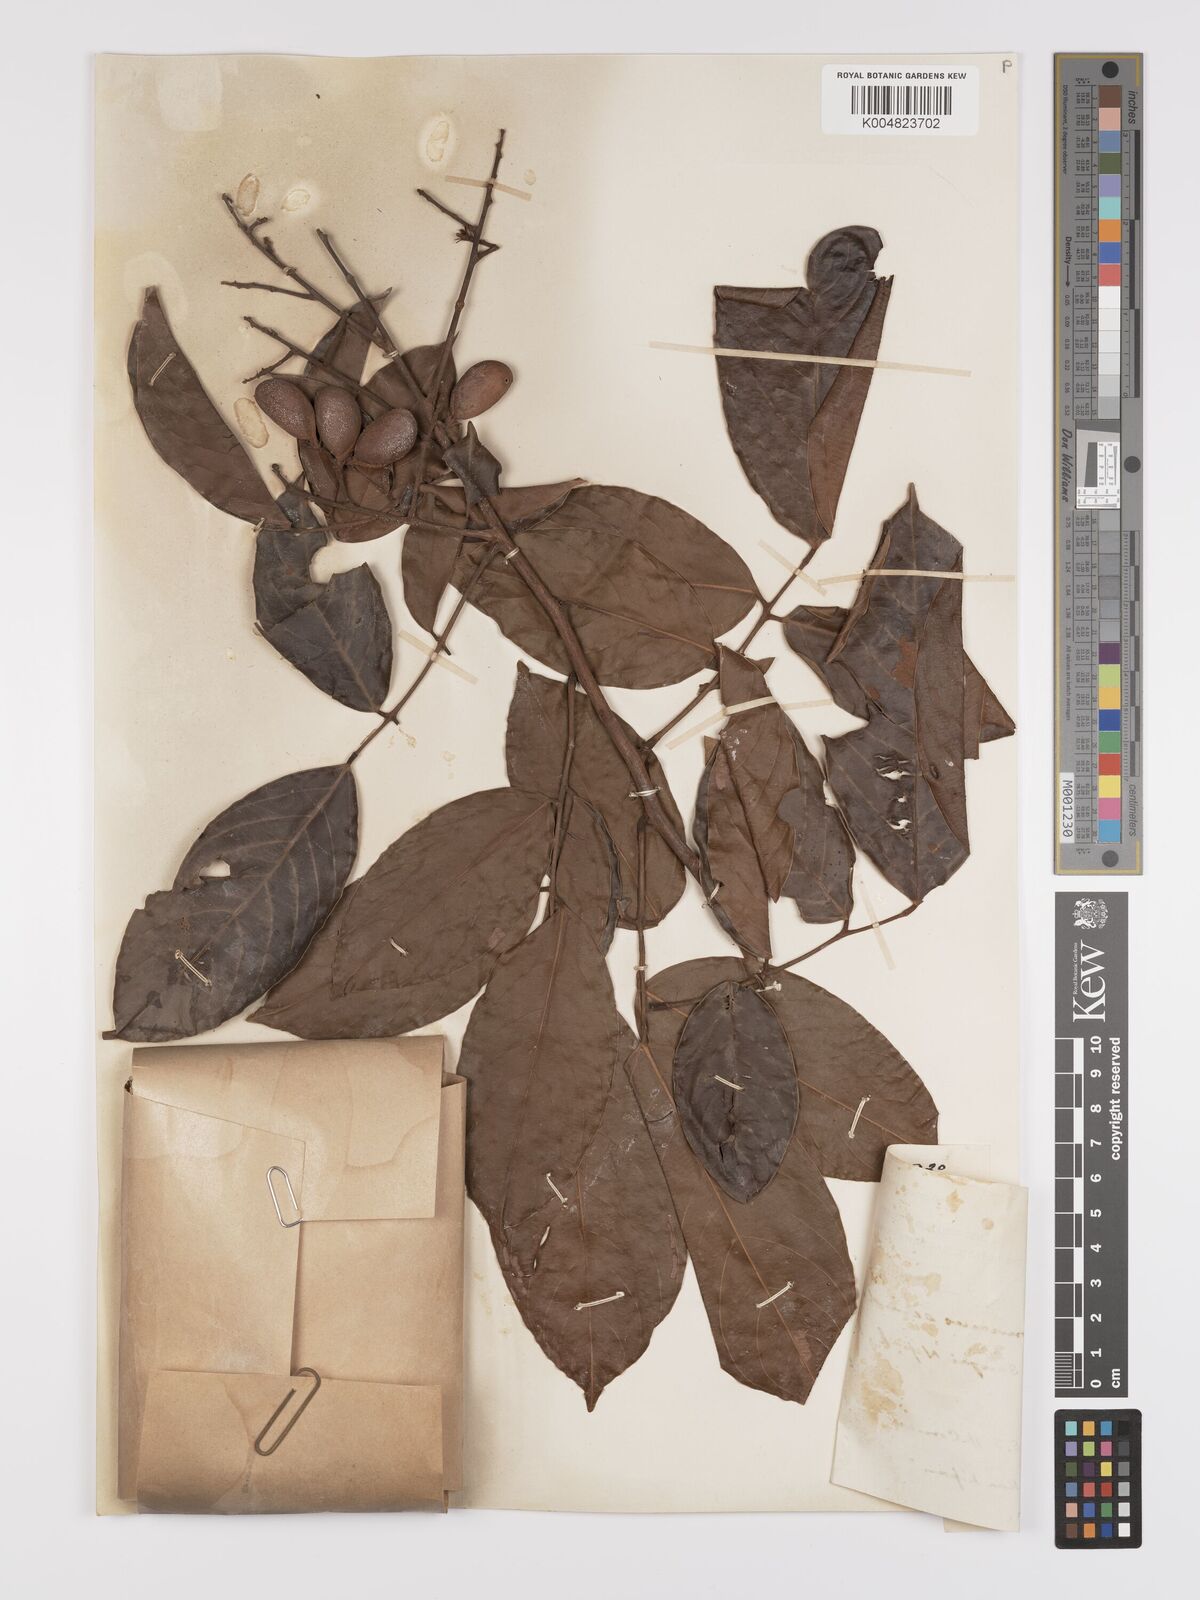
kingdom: Plantae
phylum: Tracheophyta
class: Magnoliopsida
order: Oxalidales
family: Connaraceae
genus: Connarus
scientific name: Connarus semidecandrus
